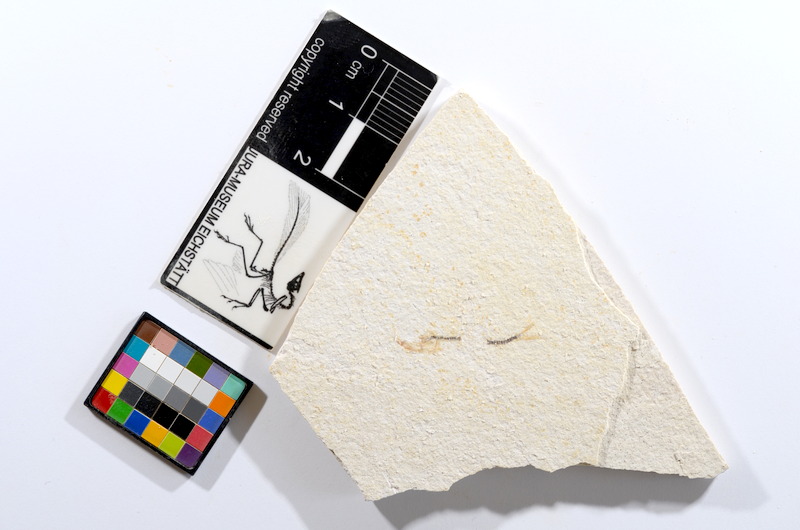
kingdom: Animalia
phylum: Chordata
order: Salmoniformes
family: Orthogonikleithridae
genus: Orthogonikleithrus
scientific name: Orthogonikleithrus hoelli
